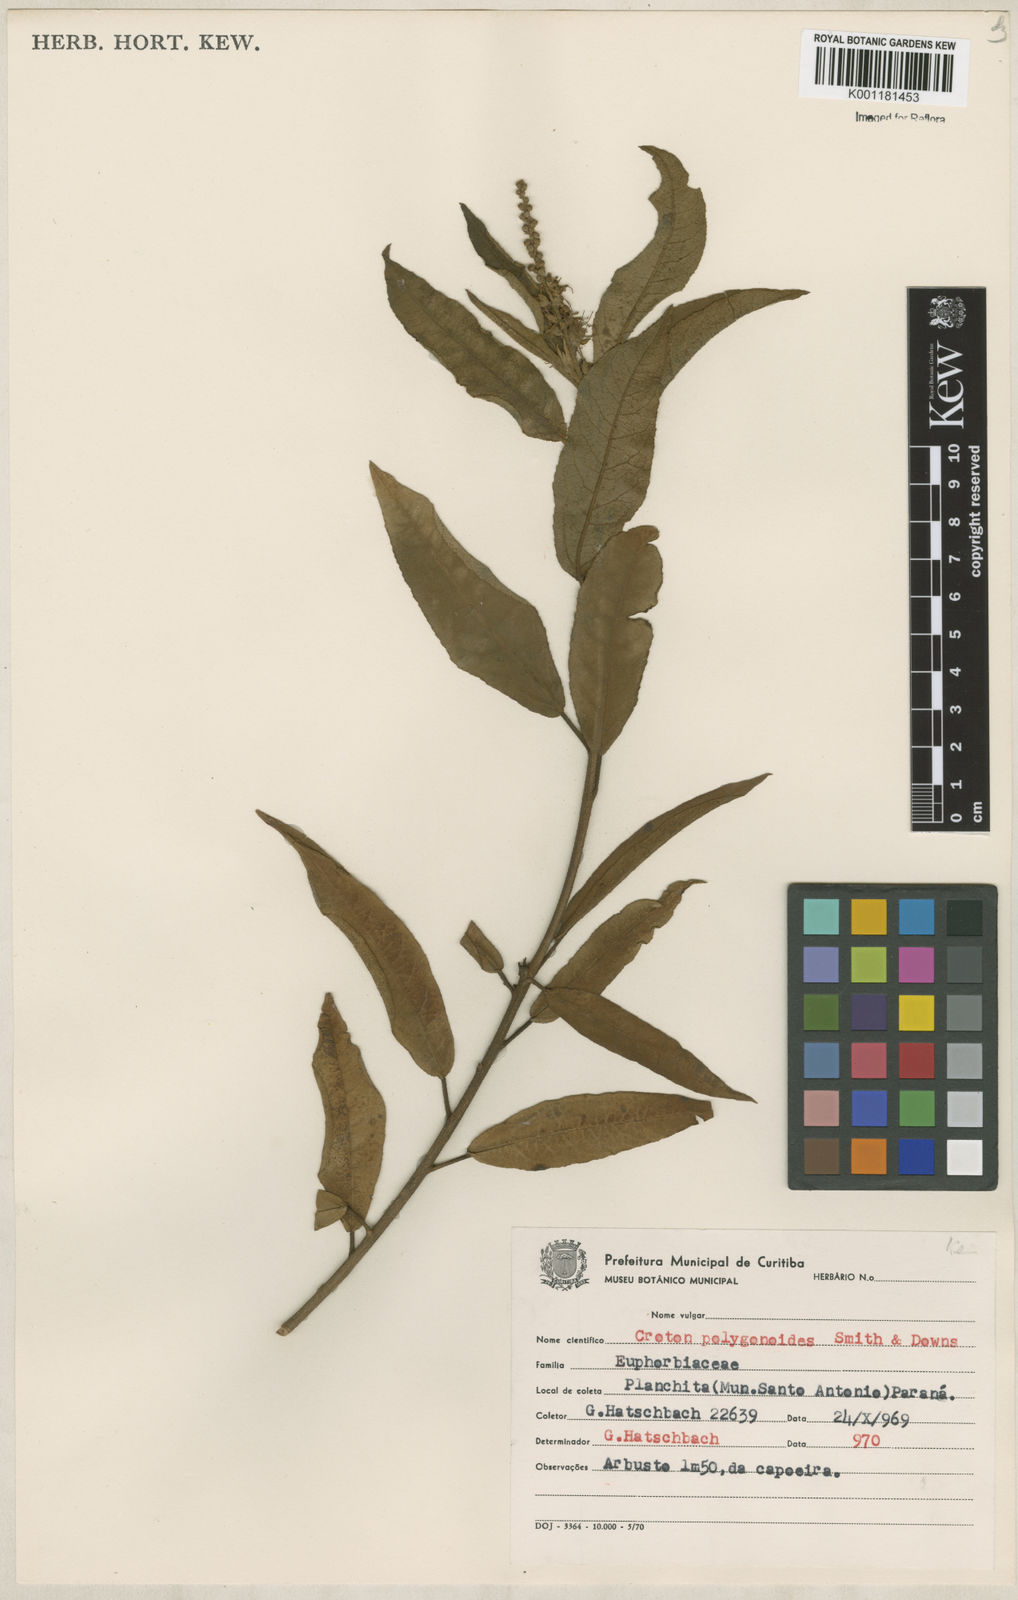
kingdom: Plantae
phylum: Tracheophyta
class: Magnoliopsida
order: Malpighiales
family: Euphorbiaceae
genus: Croton
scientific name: Croton polygonoides
